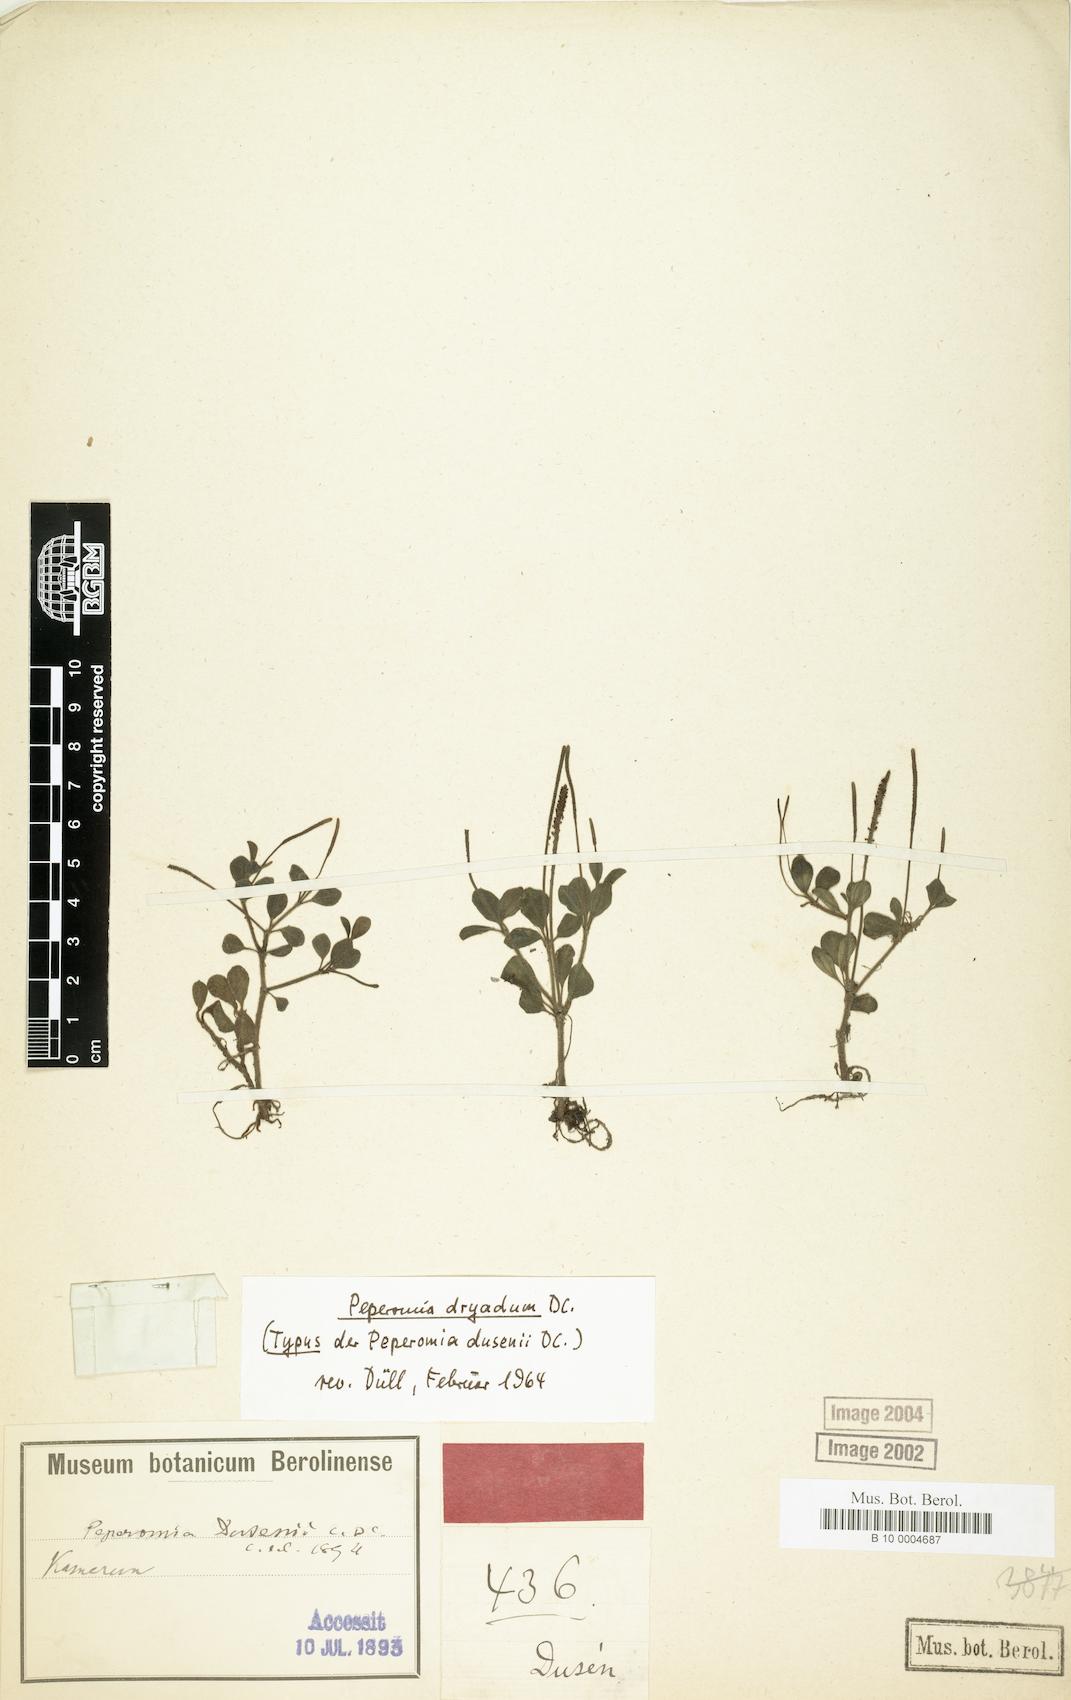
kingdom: Plantae
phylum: Tracheophyta
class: Magnoliopsida
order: Piperales
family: Piperaceae
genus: Peperomia
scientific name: Peperomia dryadum
